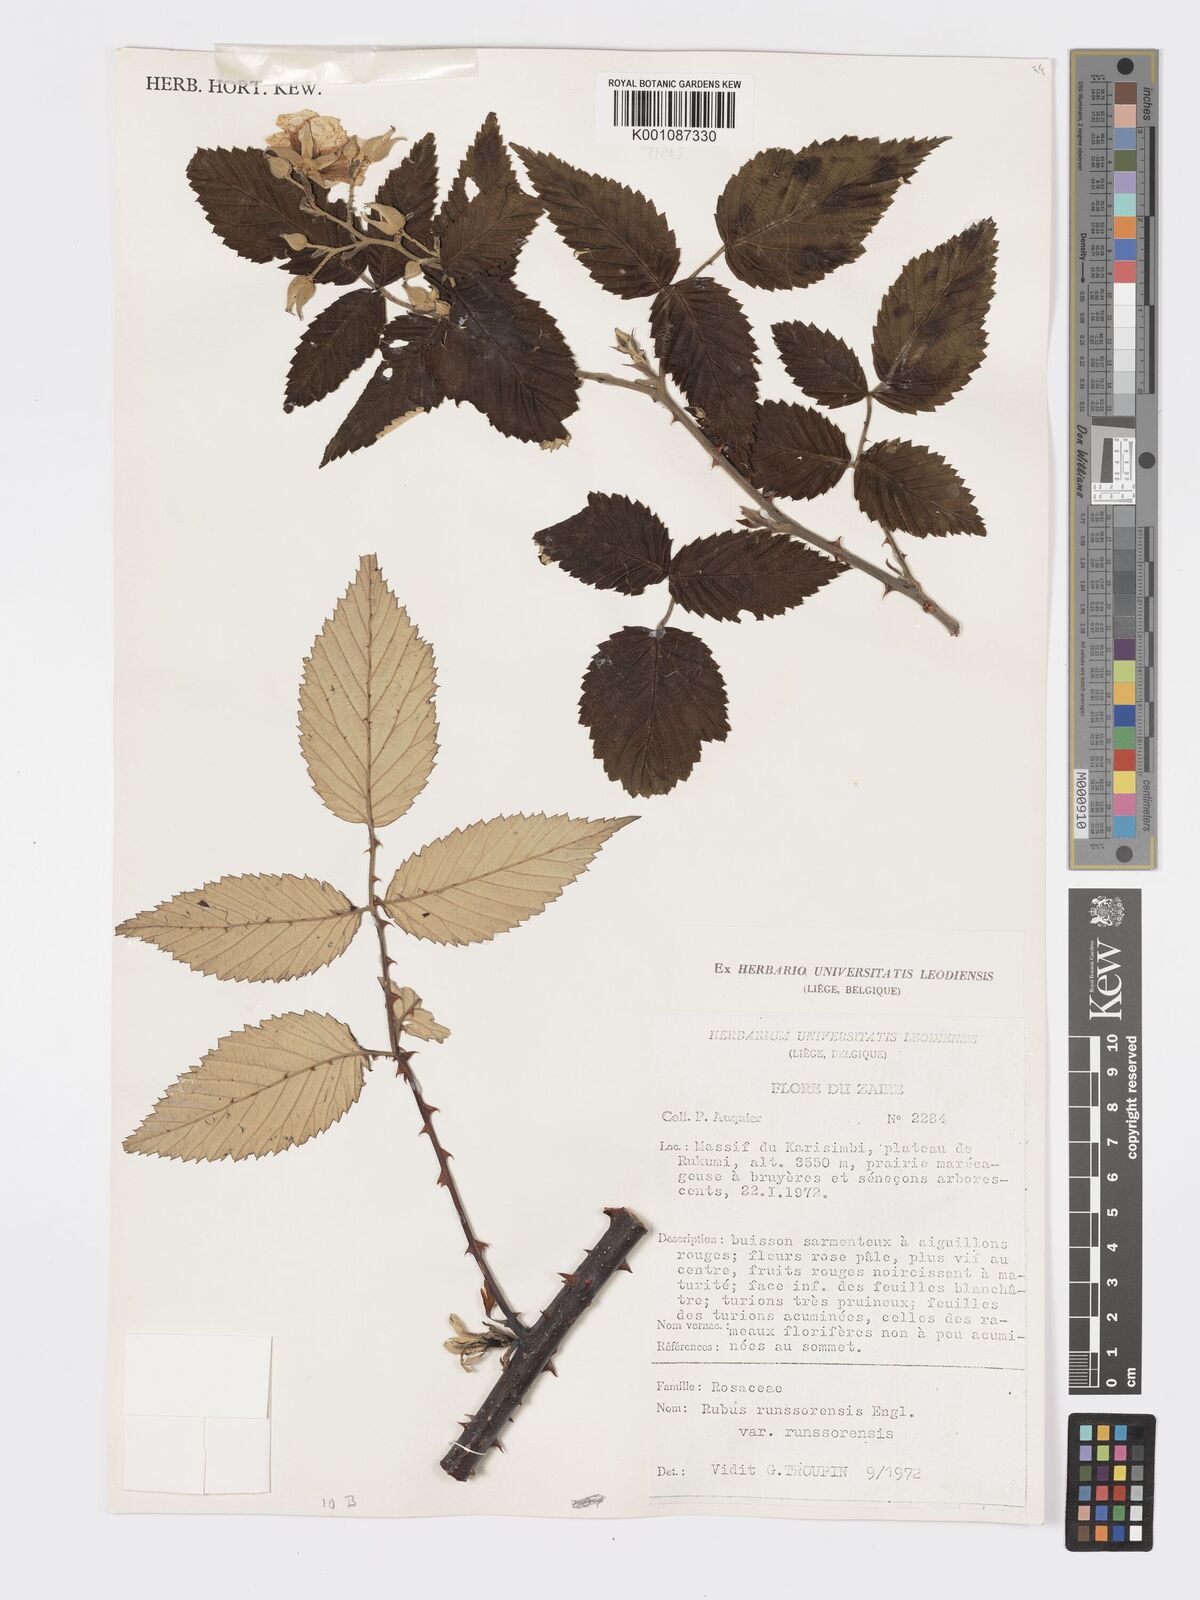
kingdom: Plantae
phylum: Tracheophyta
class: Magnoliopsida
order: Rosales
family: Rosaceae
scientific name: Rosaceae
